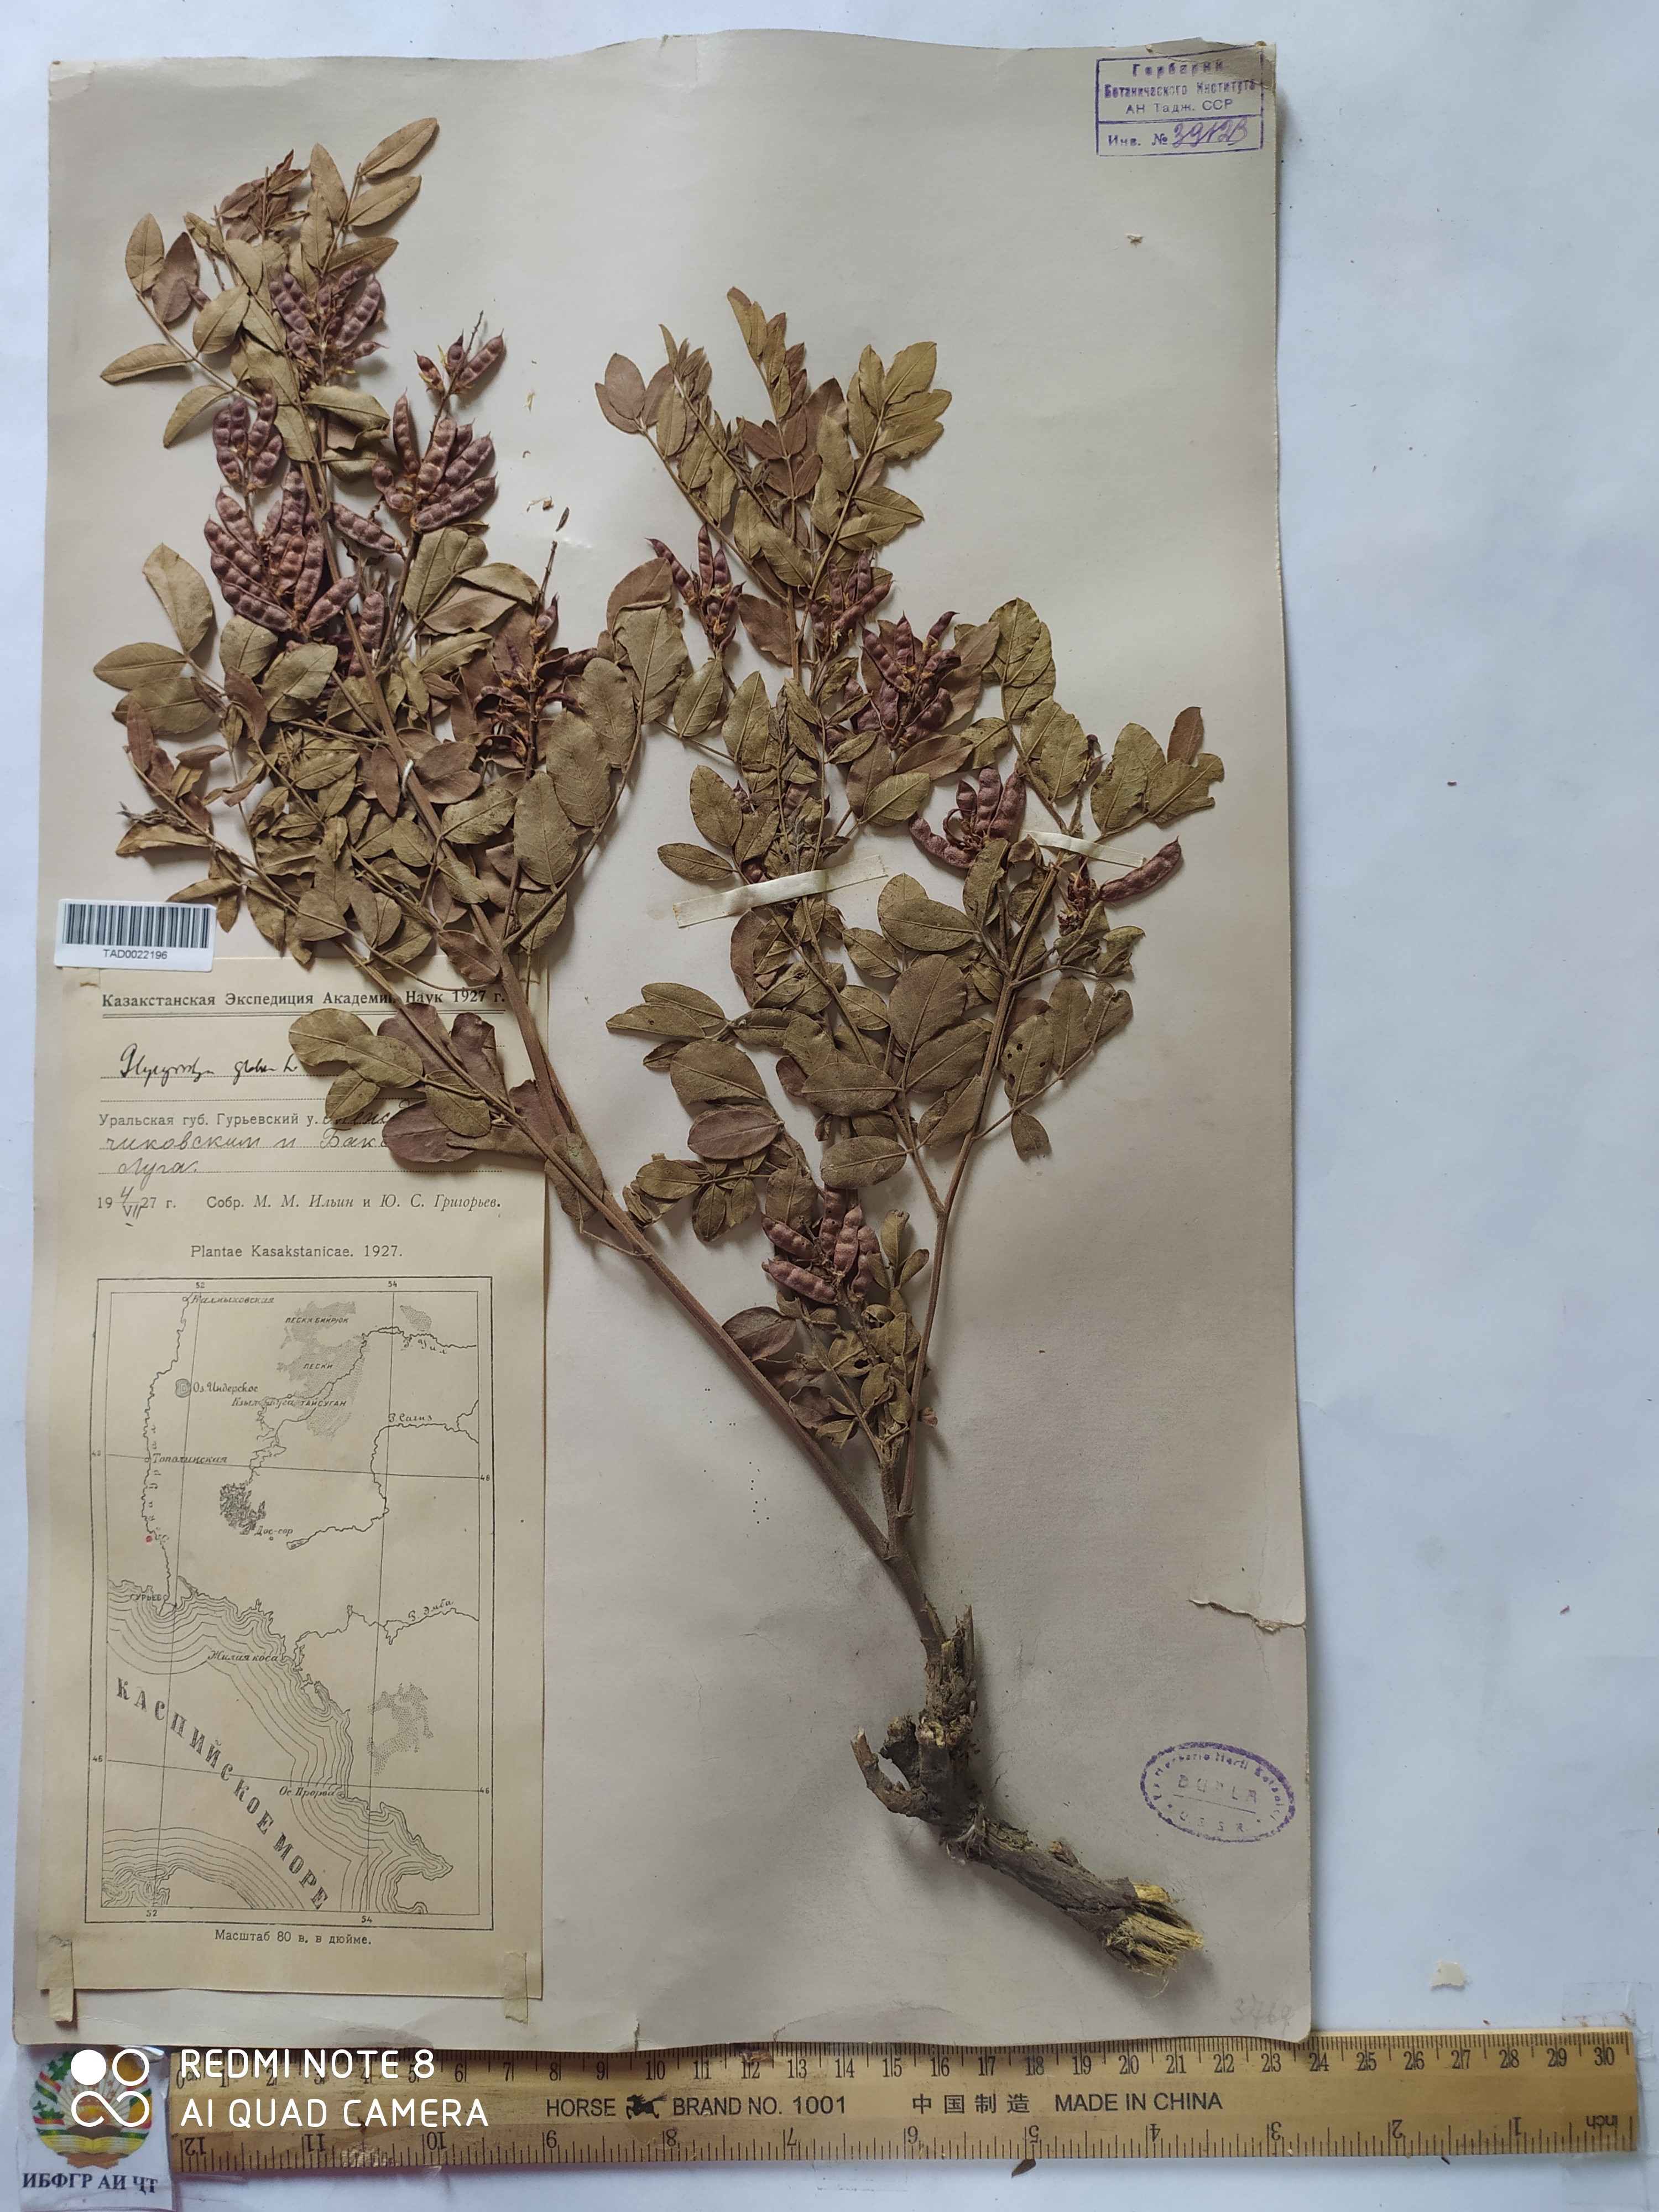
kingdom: Plantae
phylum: Tracheophyta
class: Magnoliopsida
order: Fabales
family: Fabaceae
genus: Glycyrrhiza
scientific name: Glycyrrhiza glabra
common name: Liquorice
